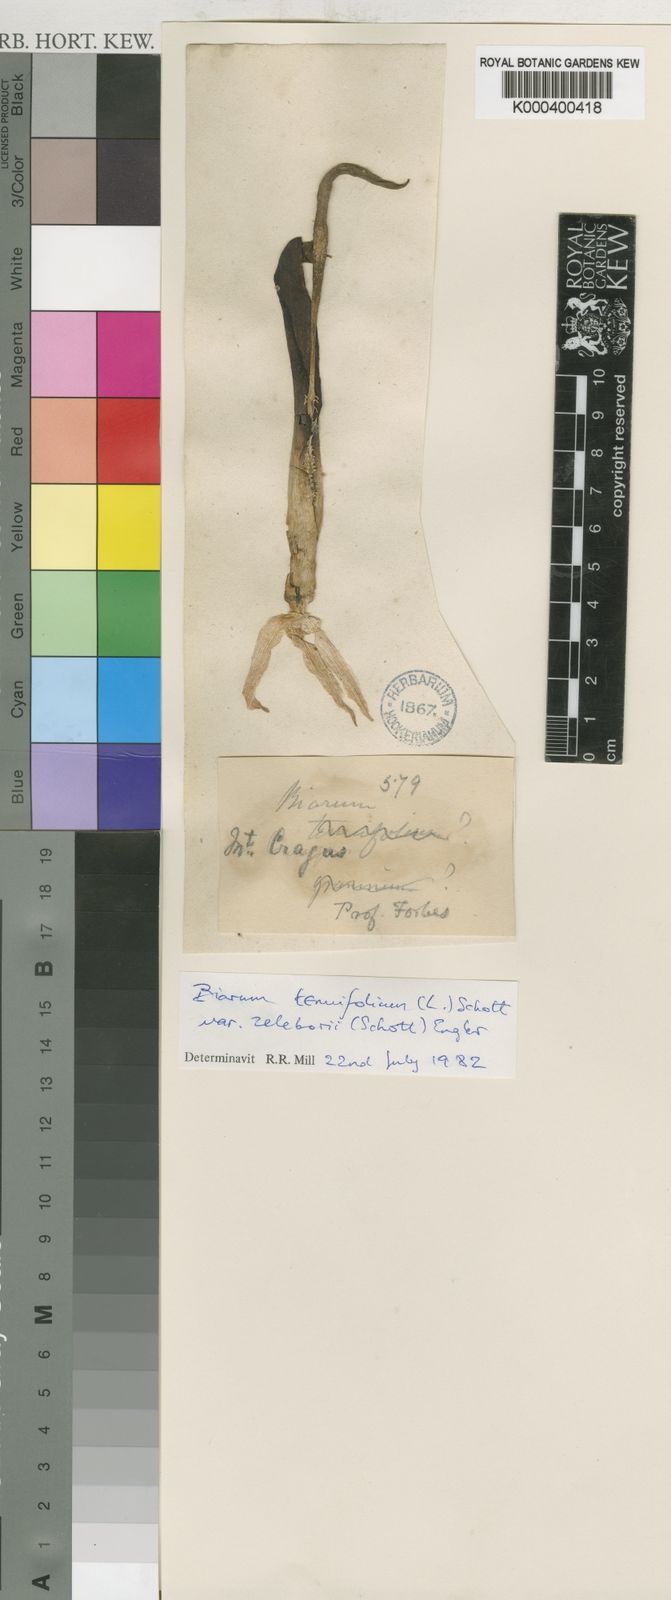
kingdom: Plantae
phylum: Tracheophyta
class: Liliopsida
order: Alismatales
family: Araceae
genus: Biarum
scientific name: Biarum tenuifolium
